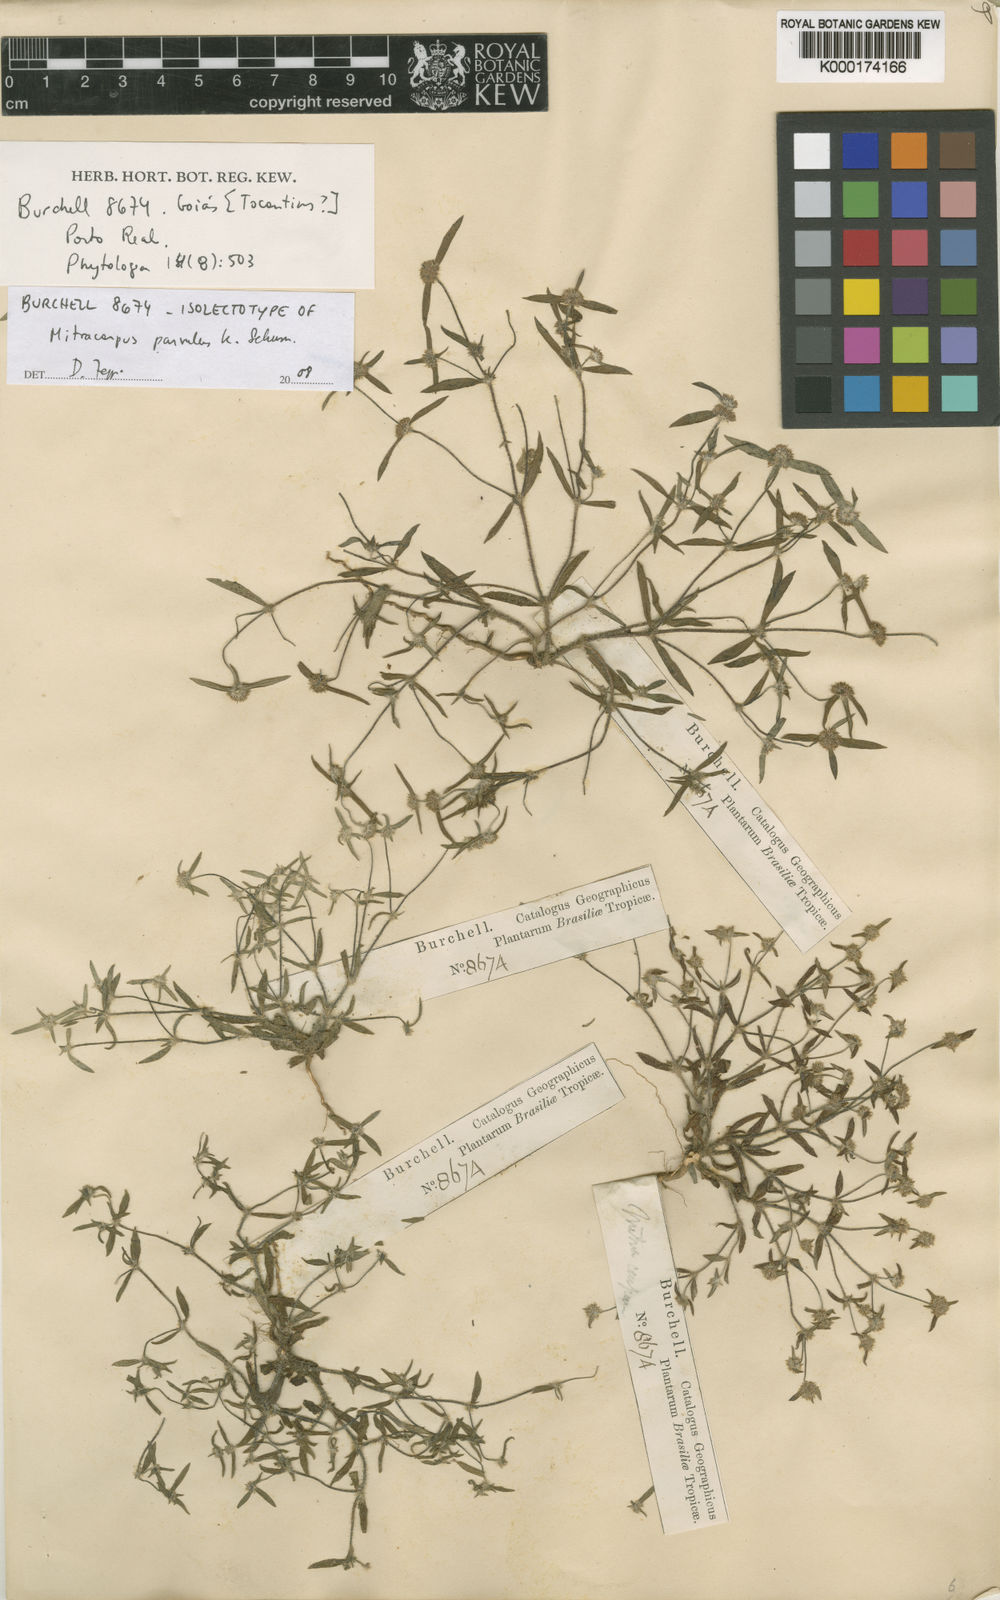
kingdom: Plantae
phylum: Tracheophyta
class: Magnoliopsida
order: Gentianales
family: Rubiaceae
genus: Mitracarpus
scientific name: Mitracarpus parvulus
